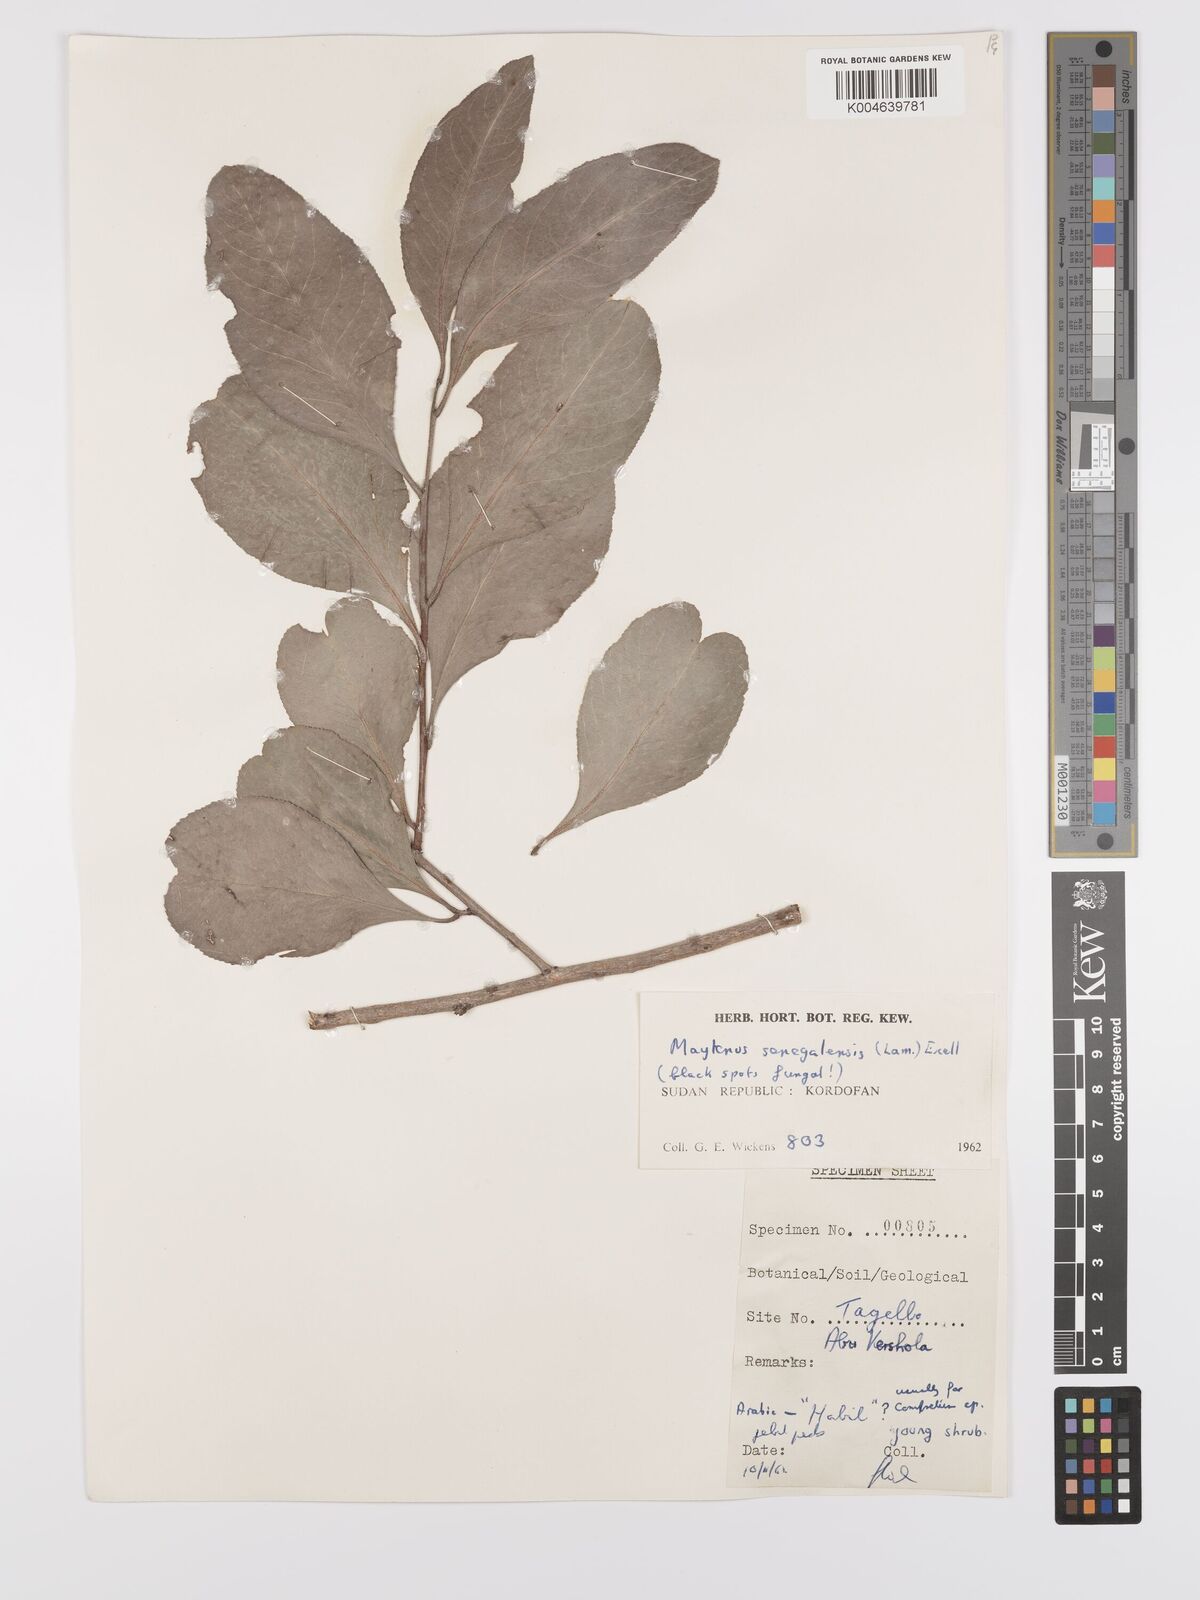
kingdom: Plantae
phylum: Tracheophyta
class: Magnoliopsida
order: Celastrales
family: Celastraceae
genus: Gymnosporia
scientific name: Gymnosporia senegalensis
